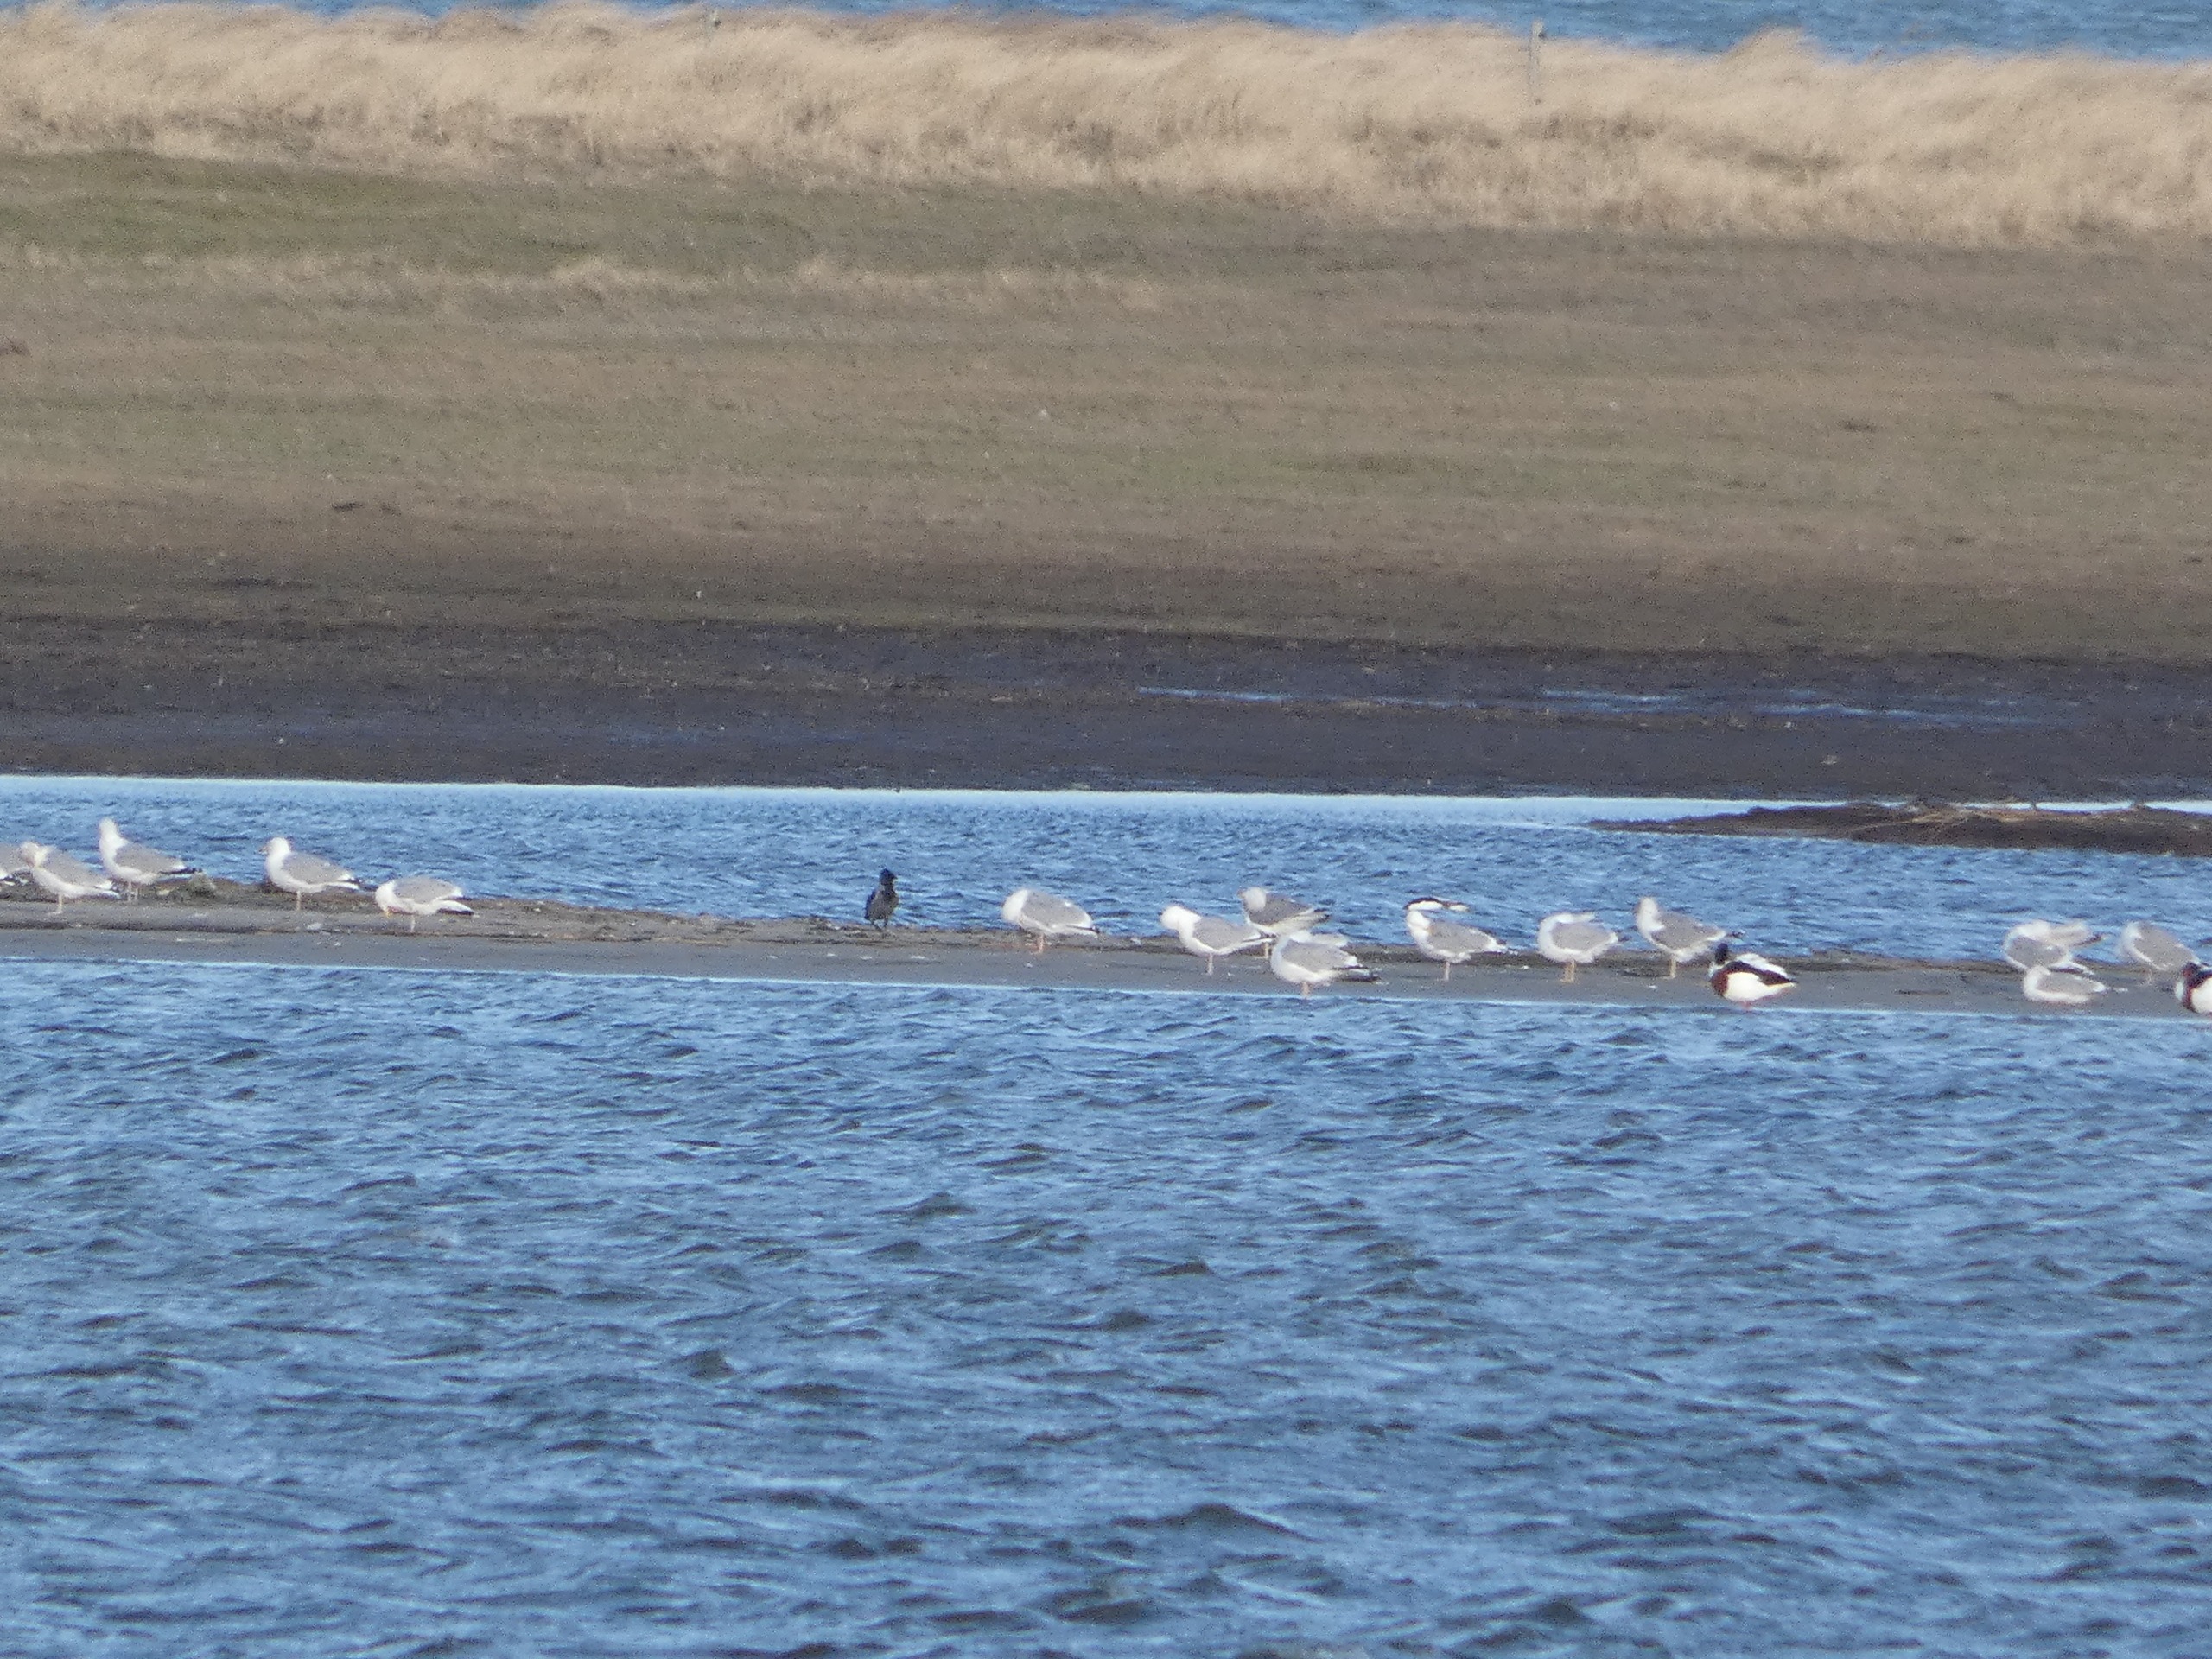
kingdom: Animalia
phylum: Chordata
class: Aves
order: Passeriformes
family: Corvidae
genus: Corvus
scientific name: Corvus cornix
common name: Gråkrage
